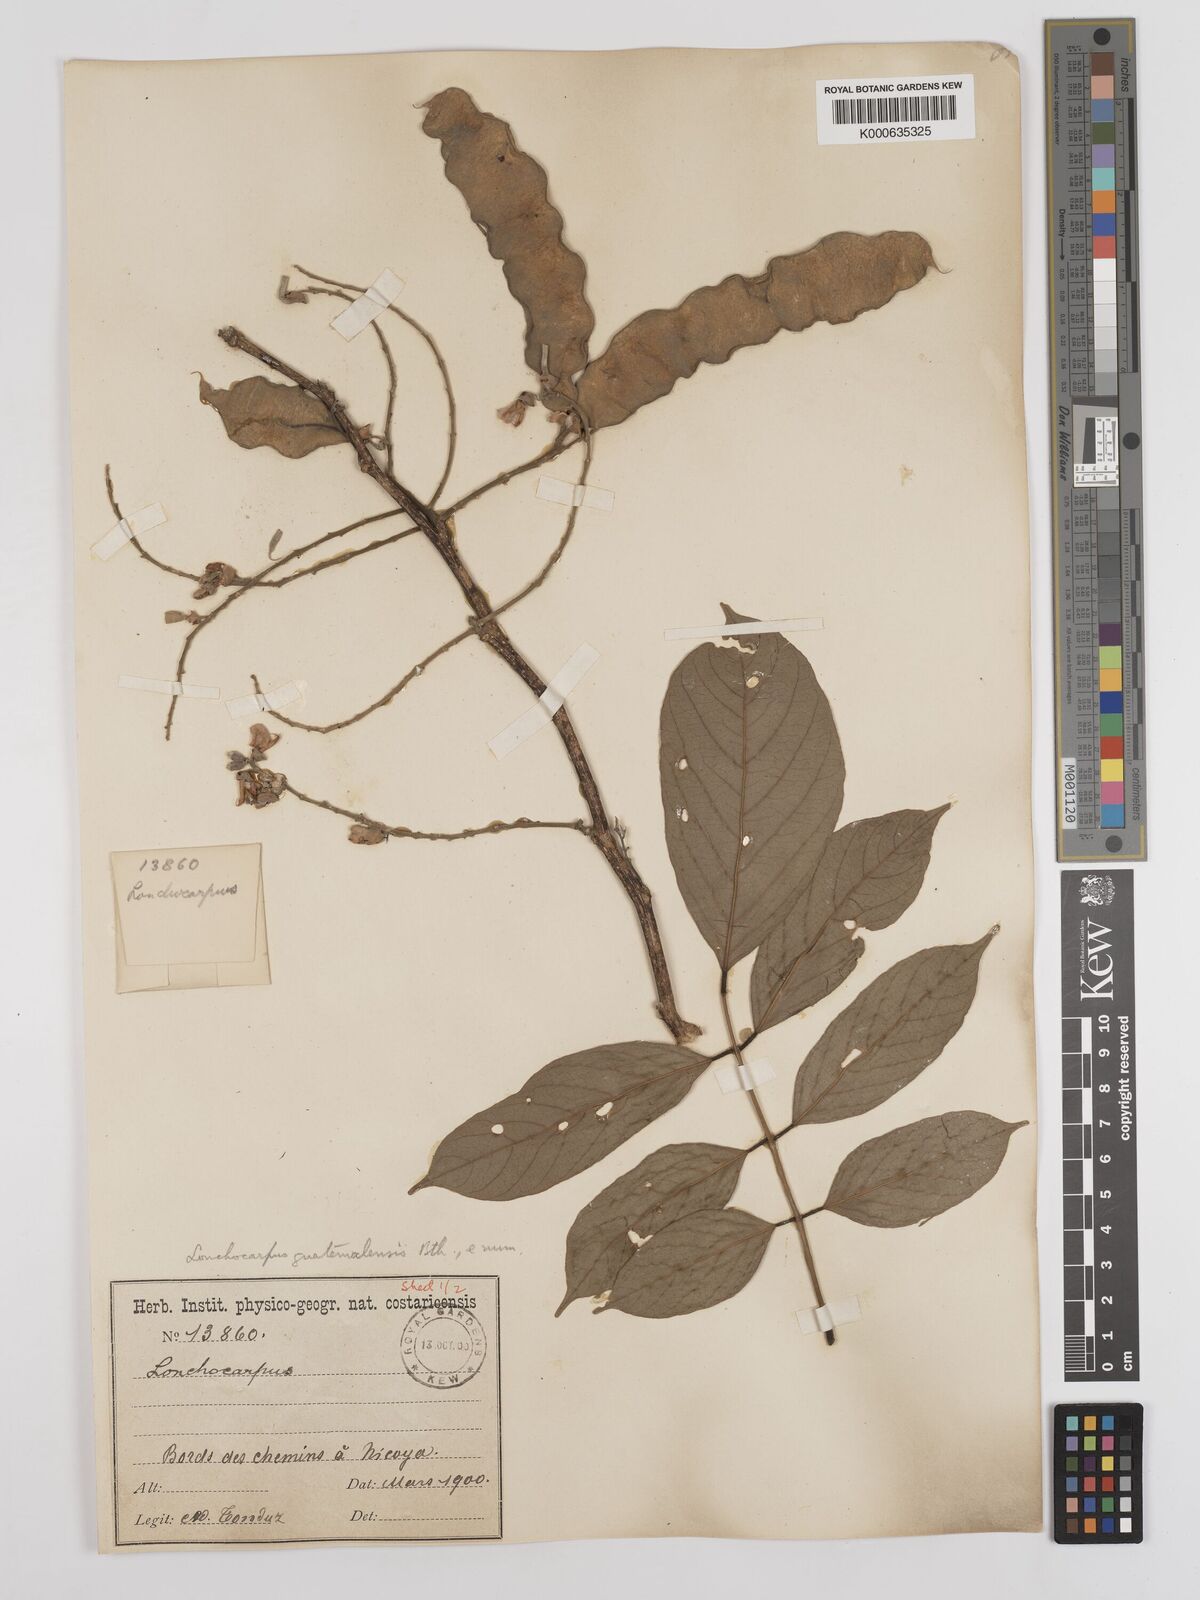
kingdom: Plantae
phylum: Tracheophyta
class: Magnoliopsida
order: Fabales
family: Fabaceae
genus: Lonchocarpus
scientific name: Lonchocarpus guatemalensis
